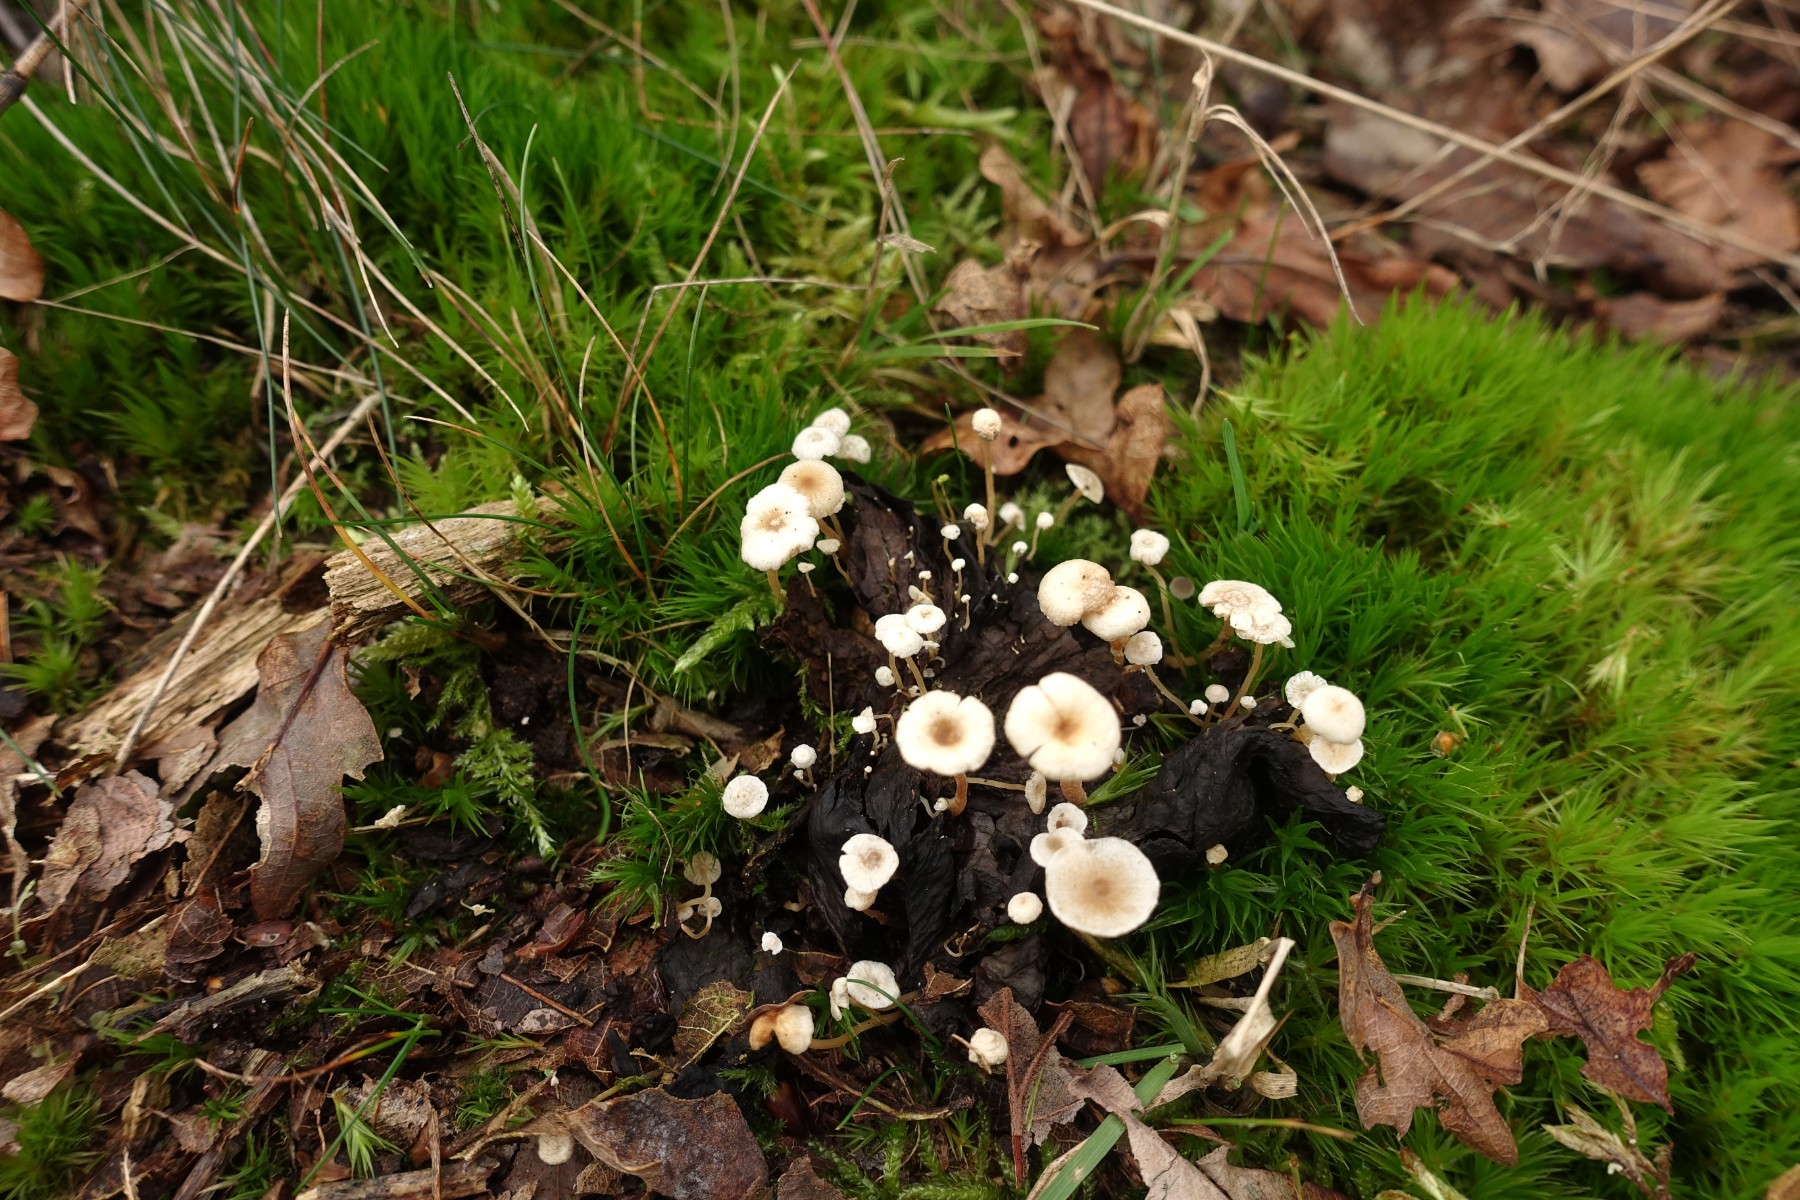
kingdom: Fungi
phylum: Basidiomycota
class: Agaricomycetes
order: Agaricales
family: Tricholomataceae
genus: Collybia
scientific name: Collybia cirrhata
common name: silke-lighat
